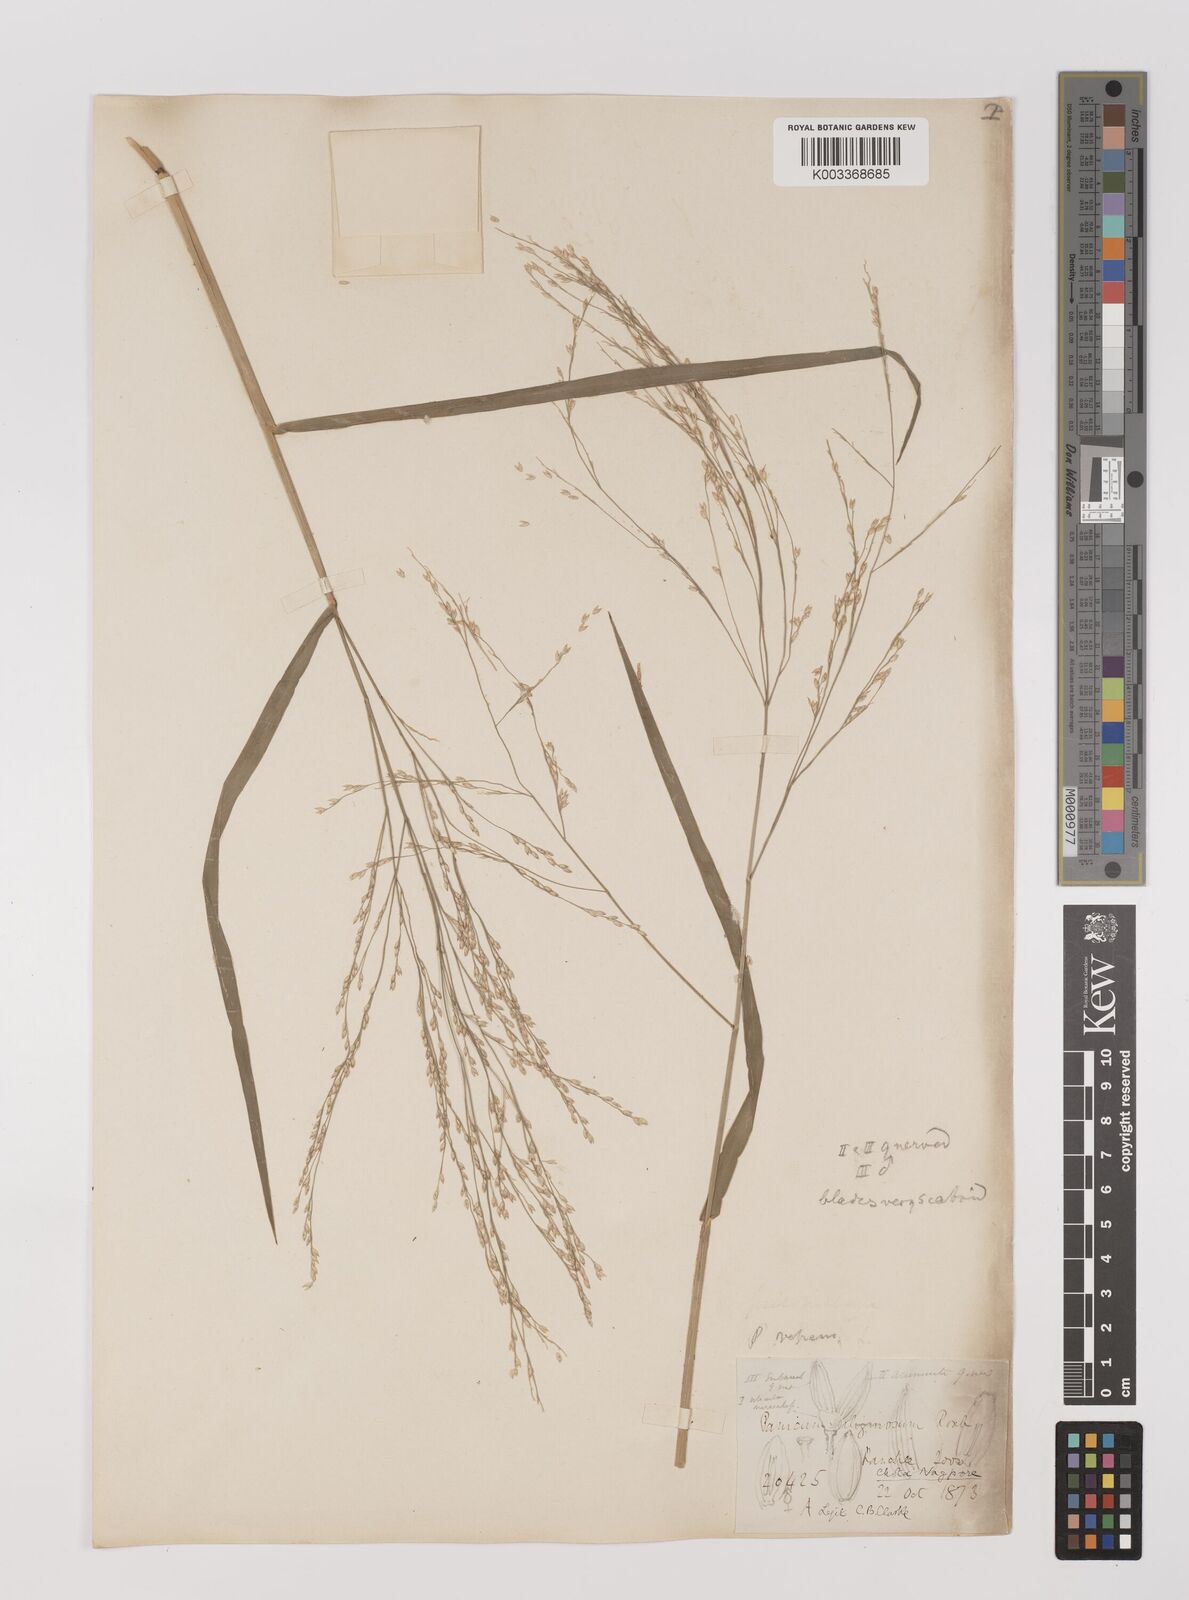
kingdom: Plantae
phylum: Tracheophyta
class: Liliopsida
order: Poales
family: Poaceae
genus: Panicum
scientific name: Panicum repens
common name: Torpedo grass
